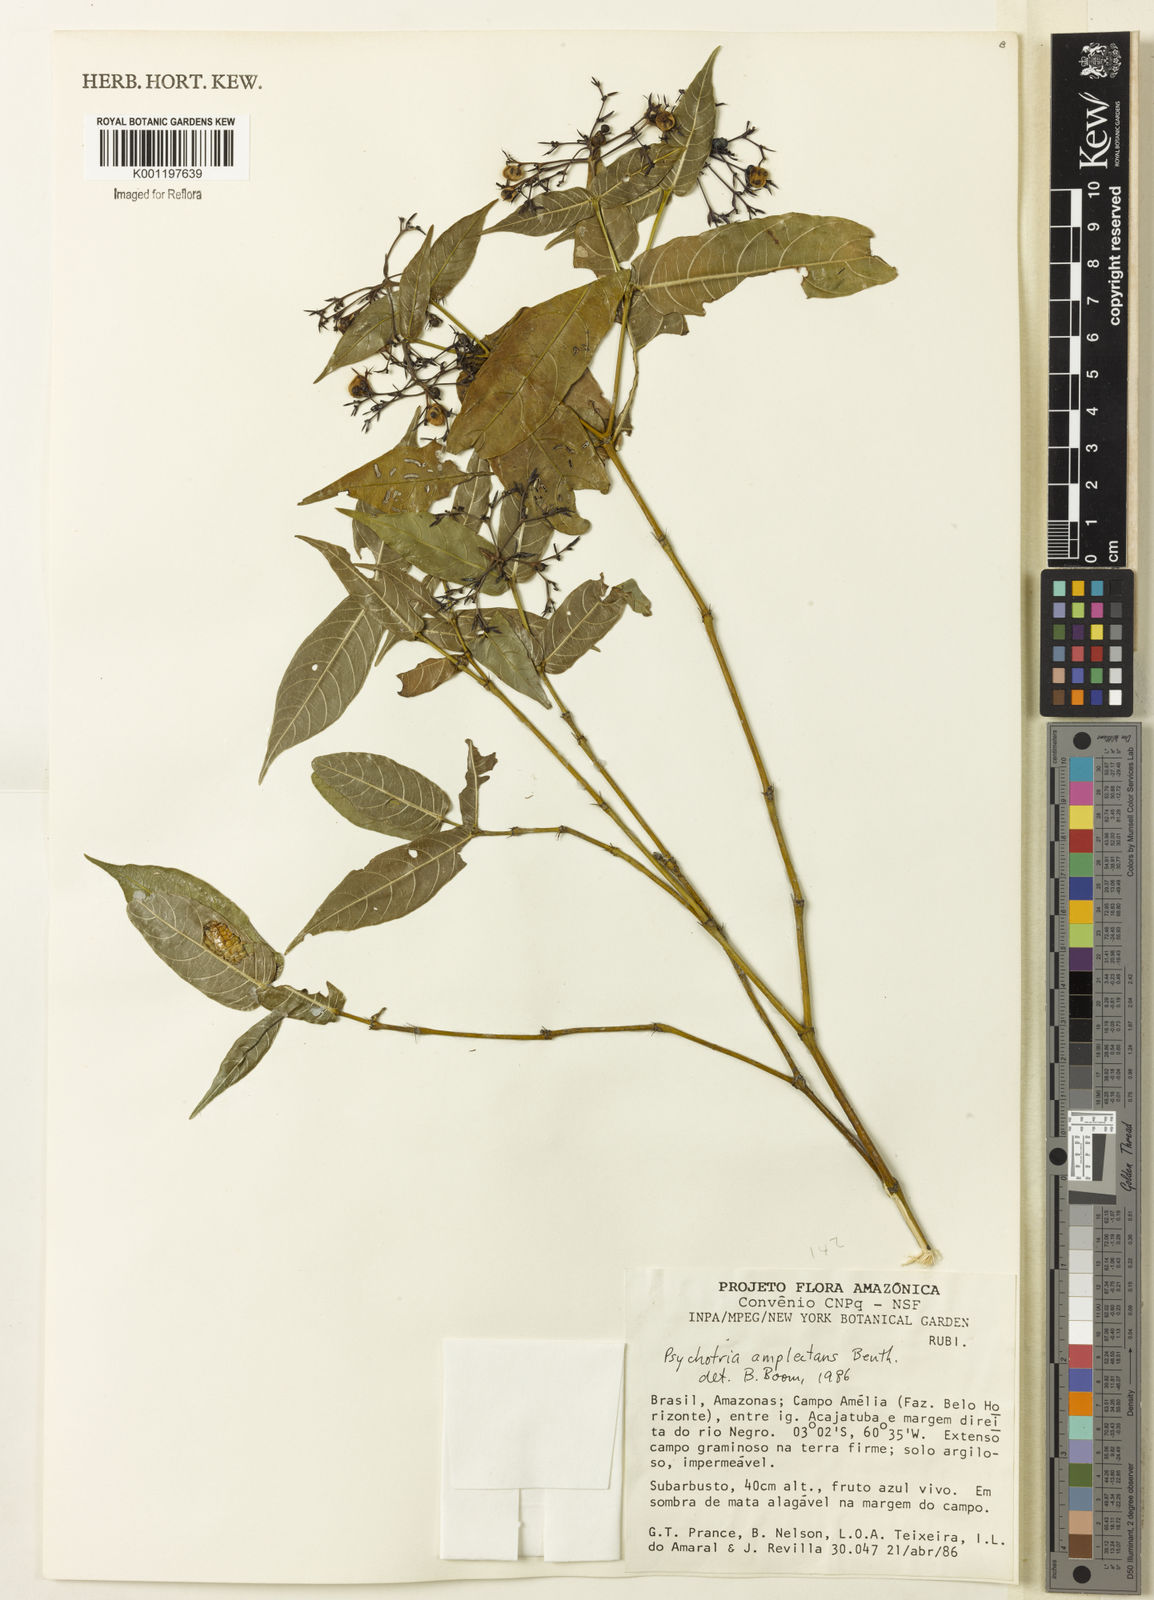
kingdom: Plantae
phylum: Tracheophyta
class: Magnoliopsida
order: Gentianales
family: Rubiaceae
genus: Psychotria
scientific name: Psychotria
